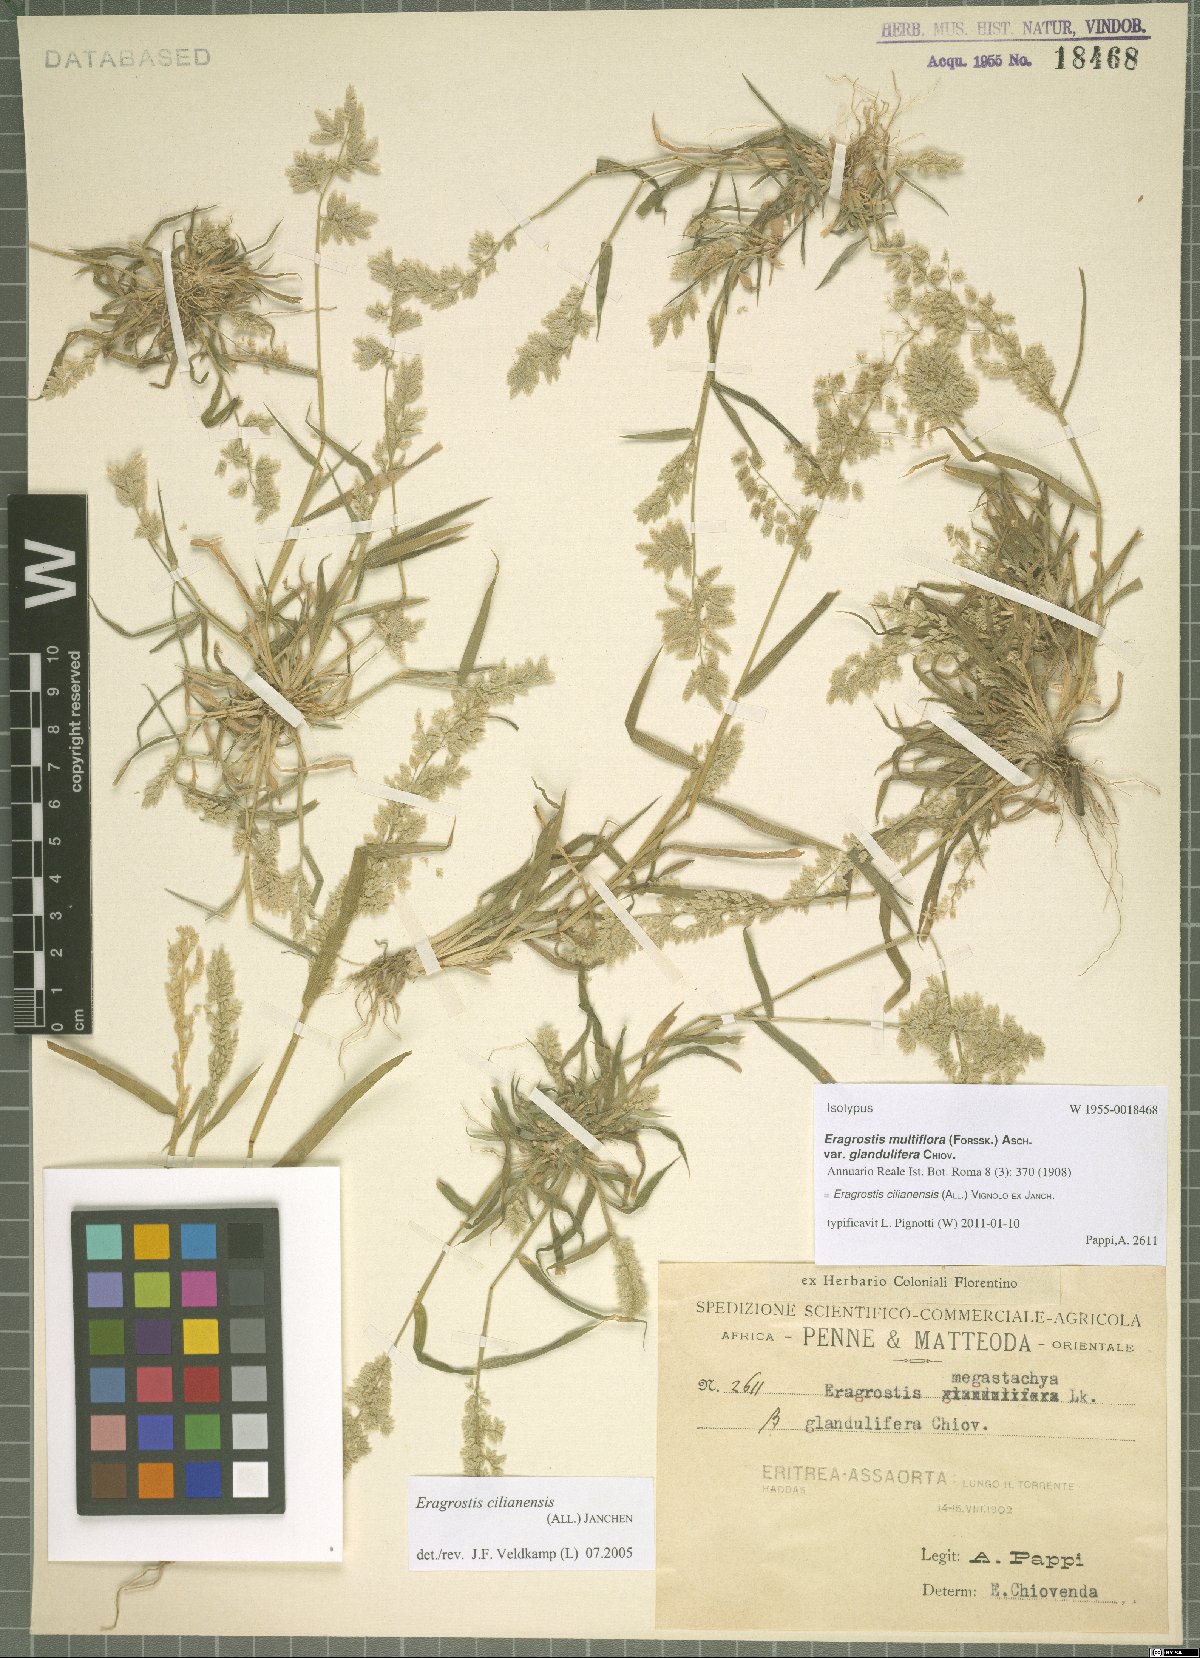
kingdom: Plantae
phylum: Tracheophyta
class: Liliopsida
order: Poales
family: Poaceae
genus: Eragrostis
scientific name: Eragrostis cilianensis
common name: Stinkgrass
